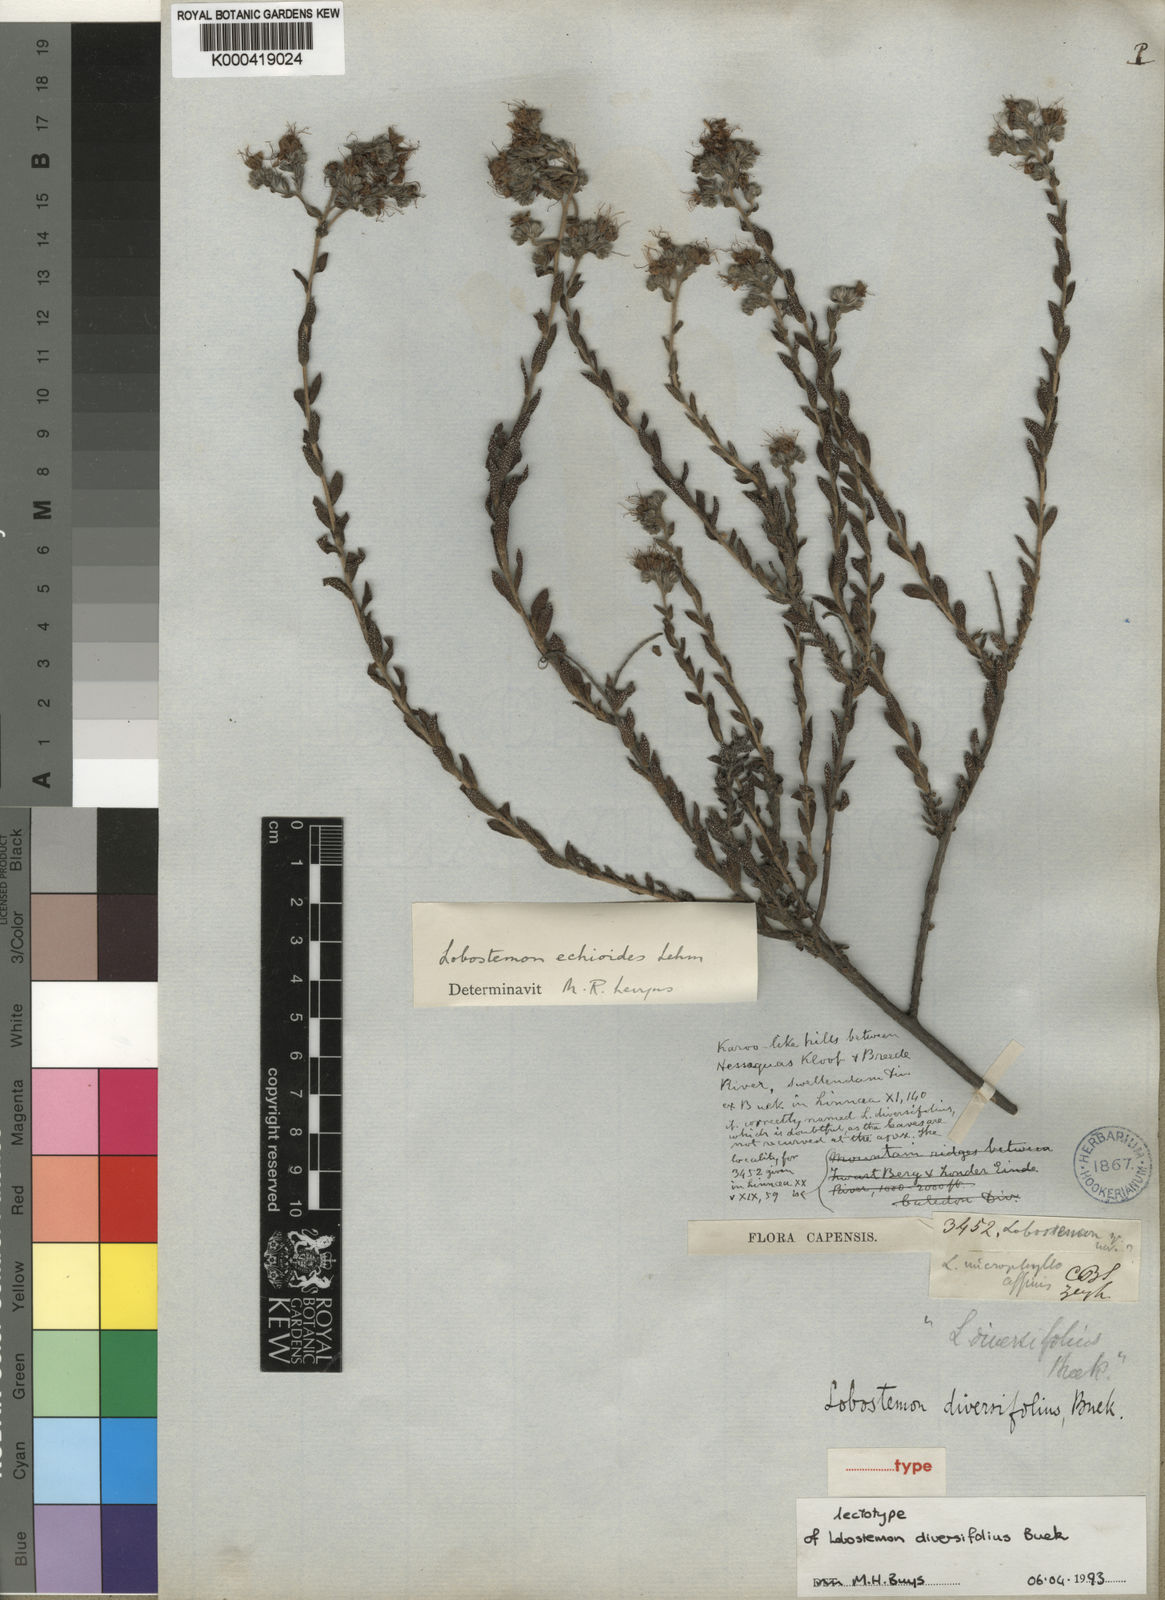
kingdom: Plantae
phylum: Tracheophyta
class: Magnoliopsida
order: Boraginales
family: Boraginaceae
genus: Lobostemon
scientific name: Lobostemon echioides
